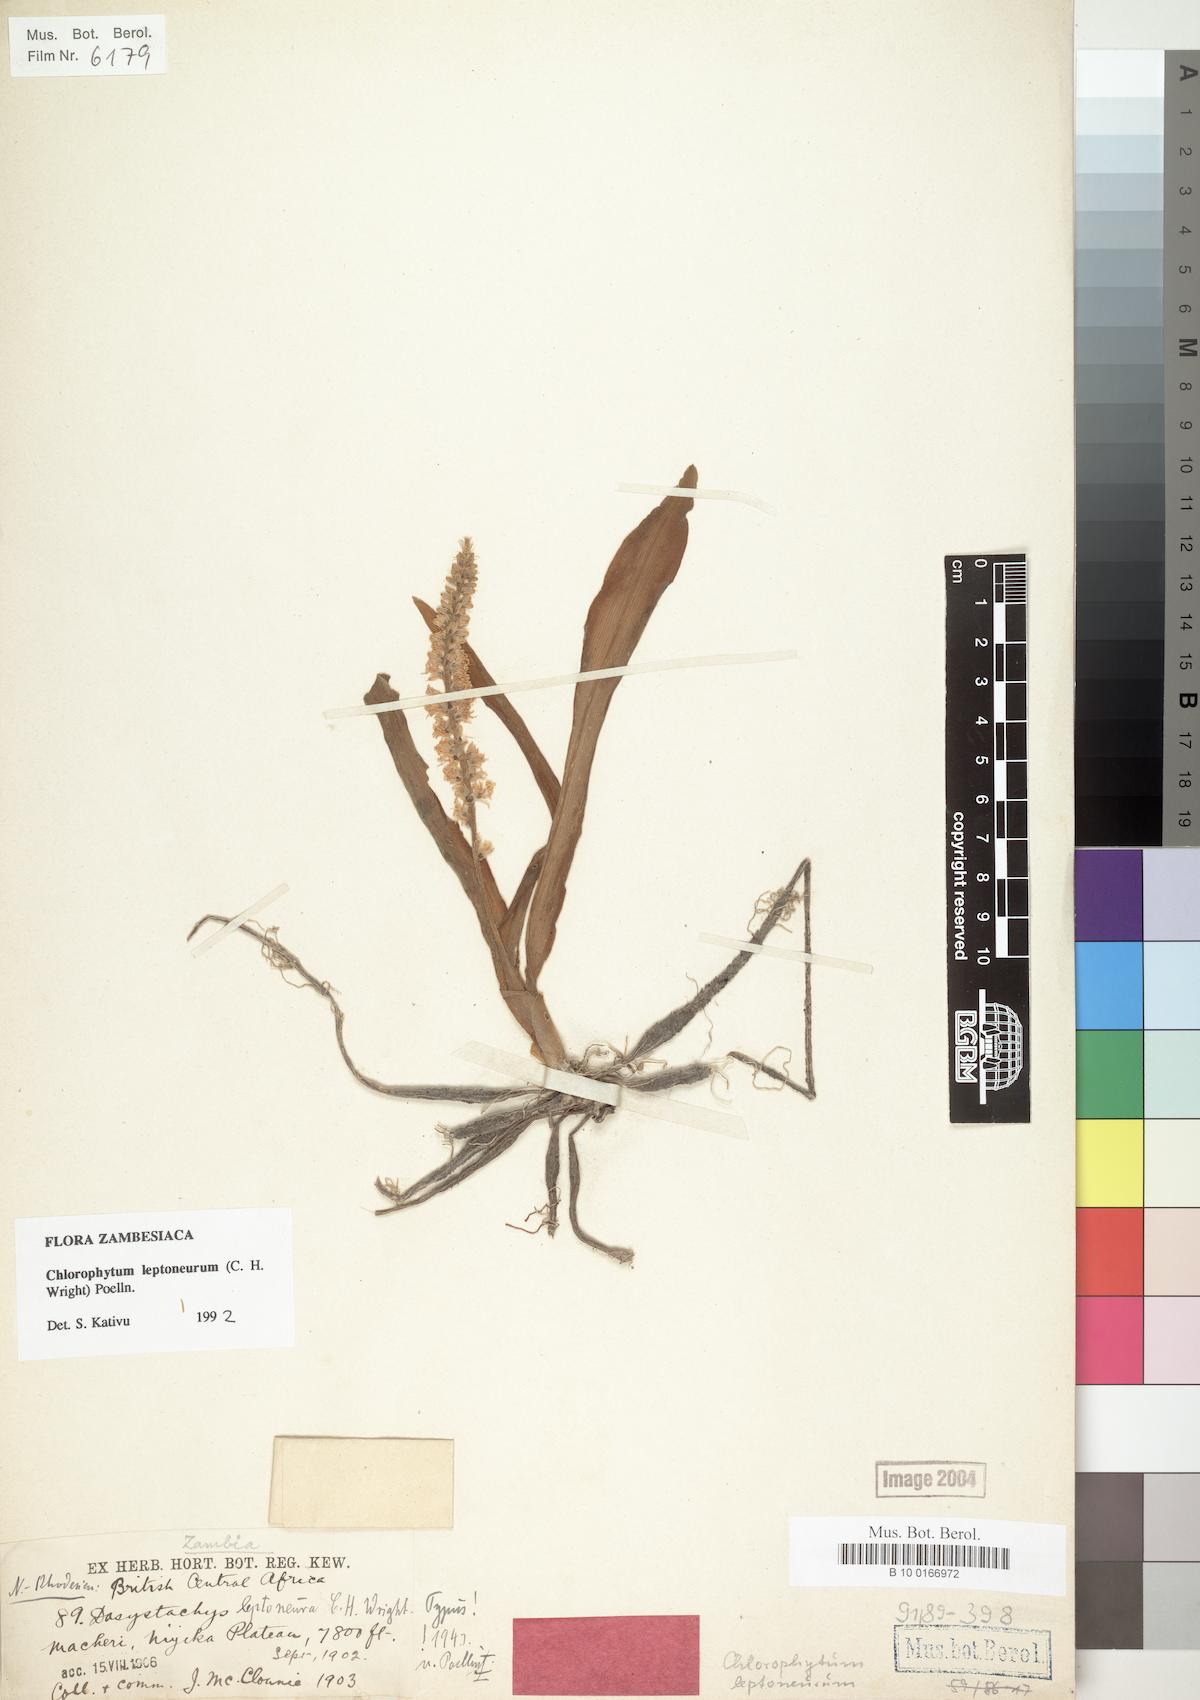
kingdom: Plantae
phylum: Tracheophyta
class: Liliopsida
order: Asparagales
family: Asparagaceae
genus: Chlorophytum
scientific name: Chlorophytum leptoneurum
